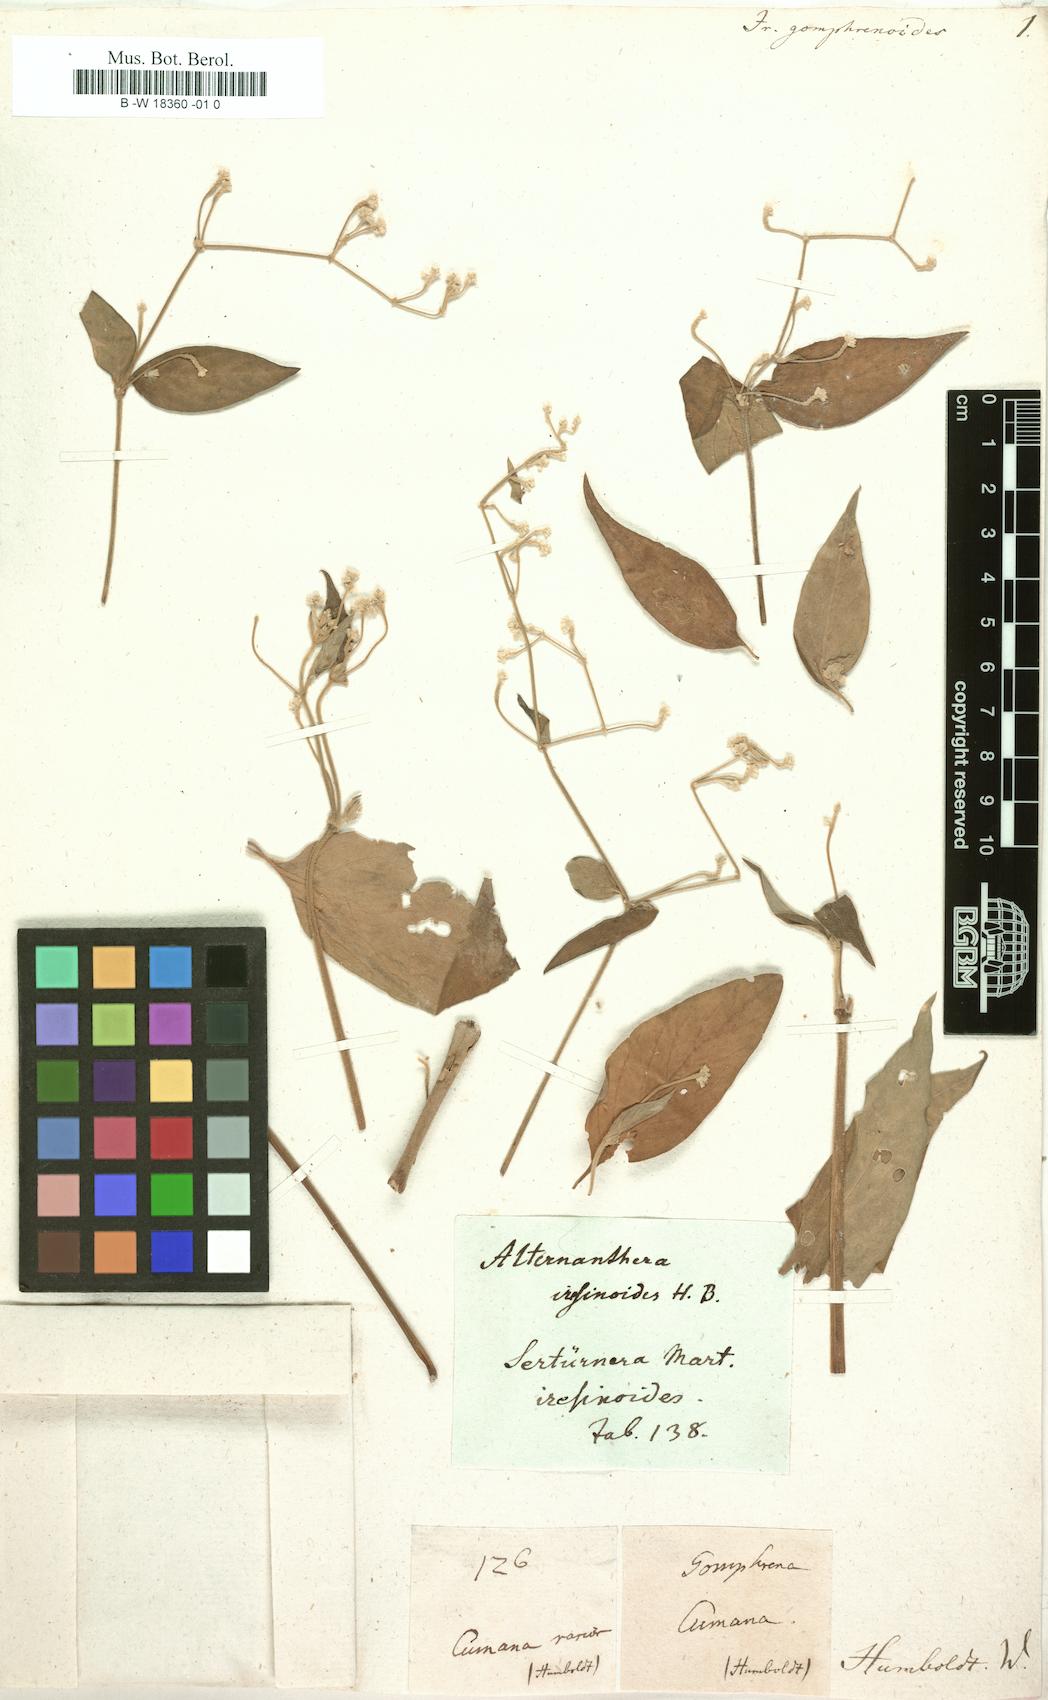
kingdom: Plantae
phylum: Tracheophyta
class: Magnoliopsida
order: Caryophyllales
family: Amaranthaceae
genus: Iresine
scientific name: Iresine
